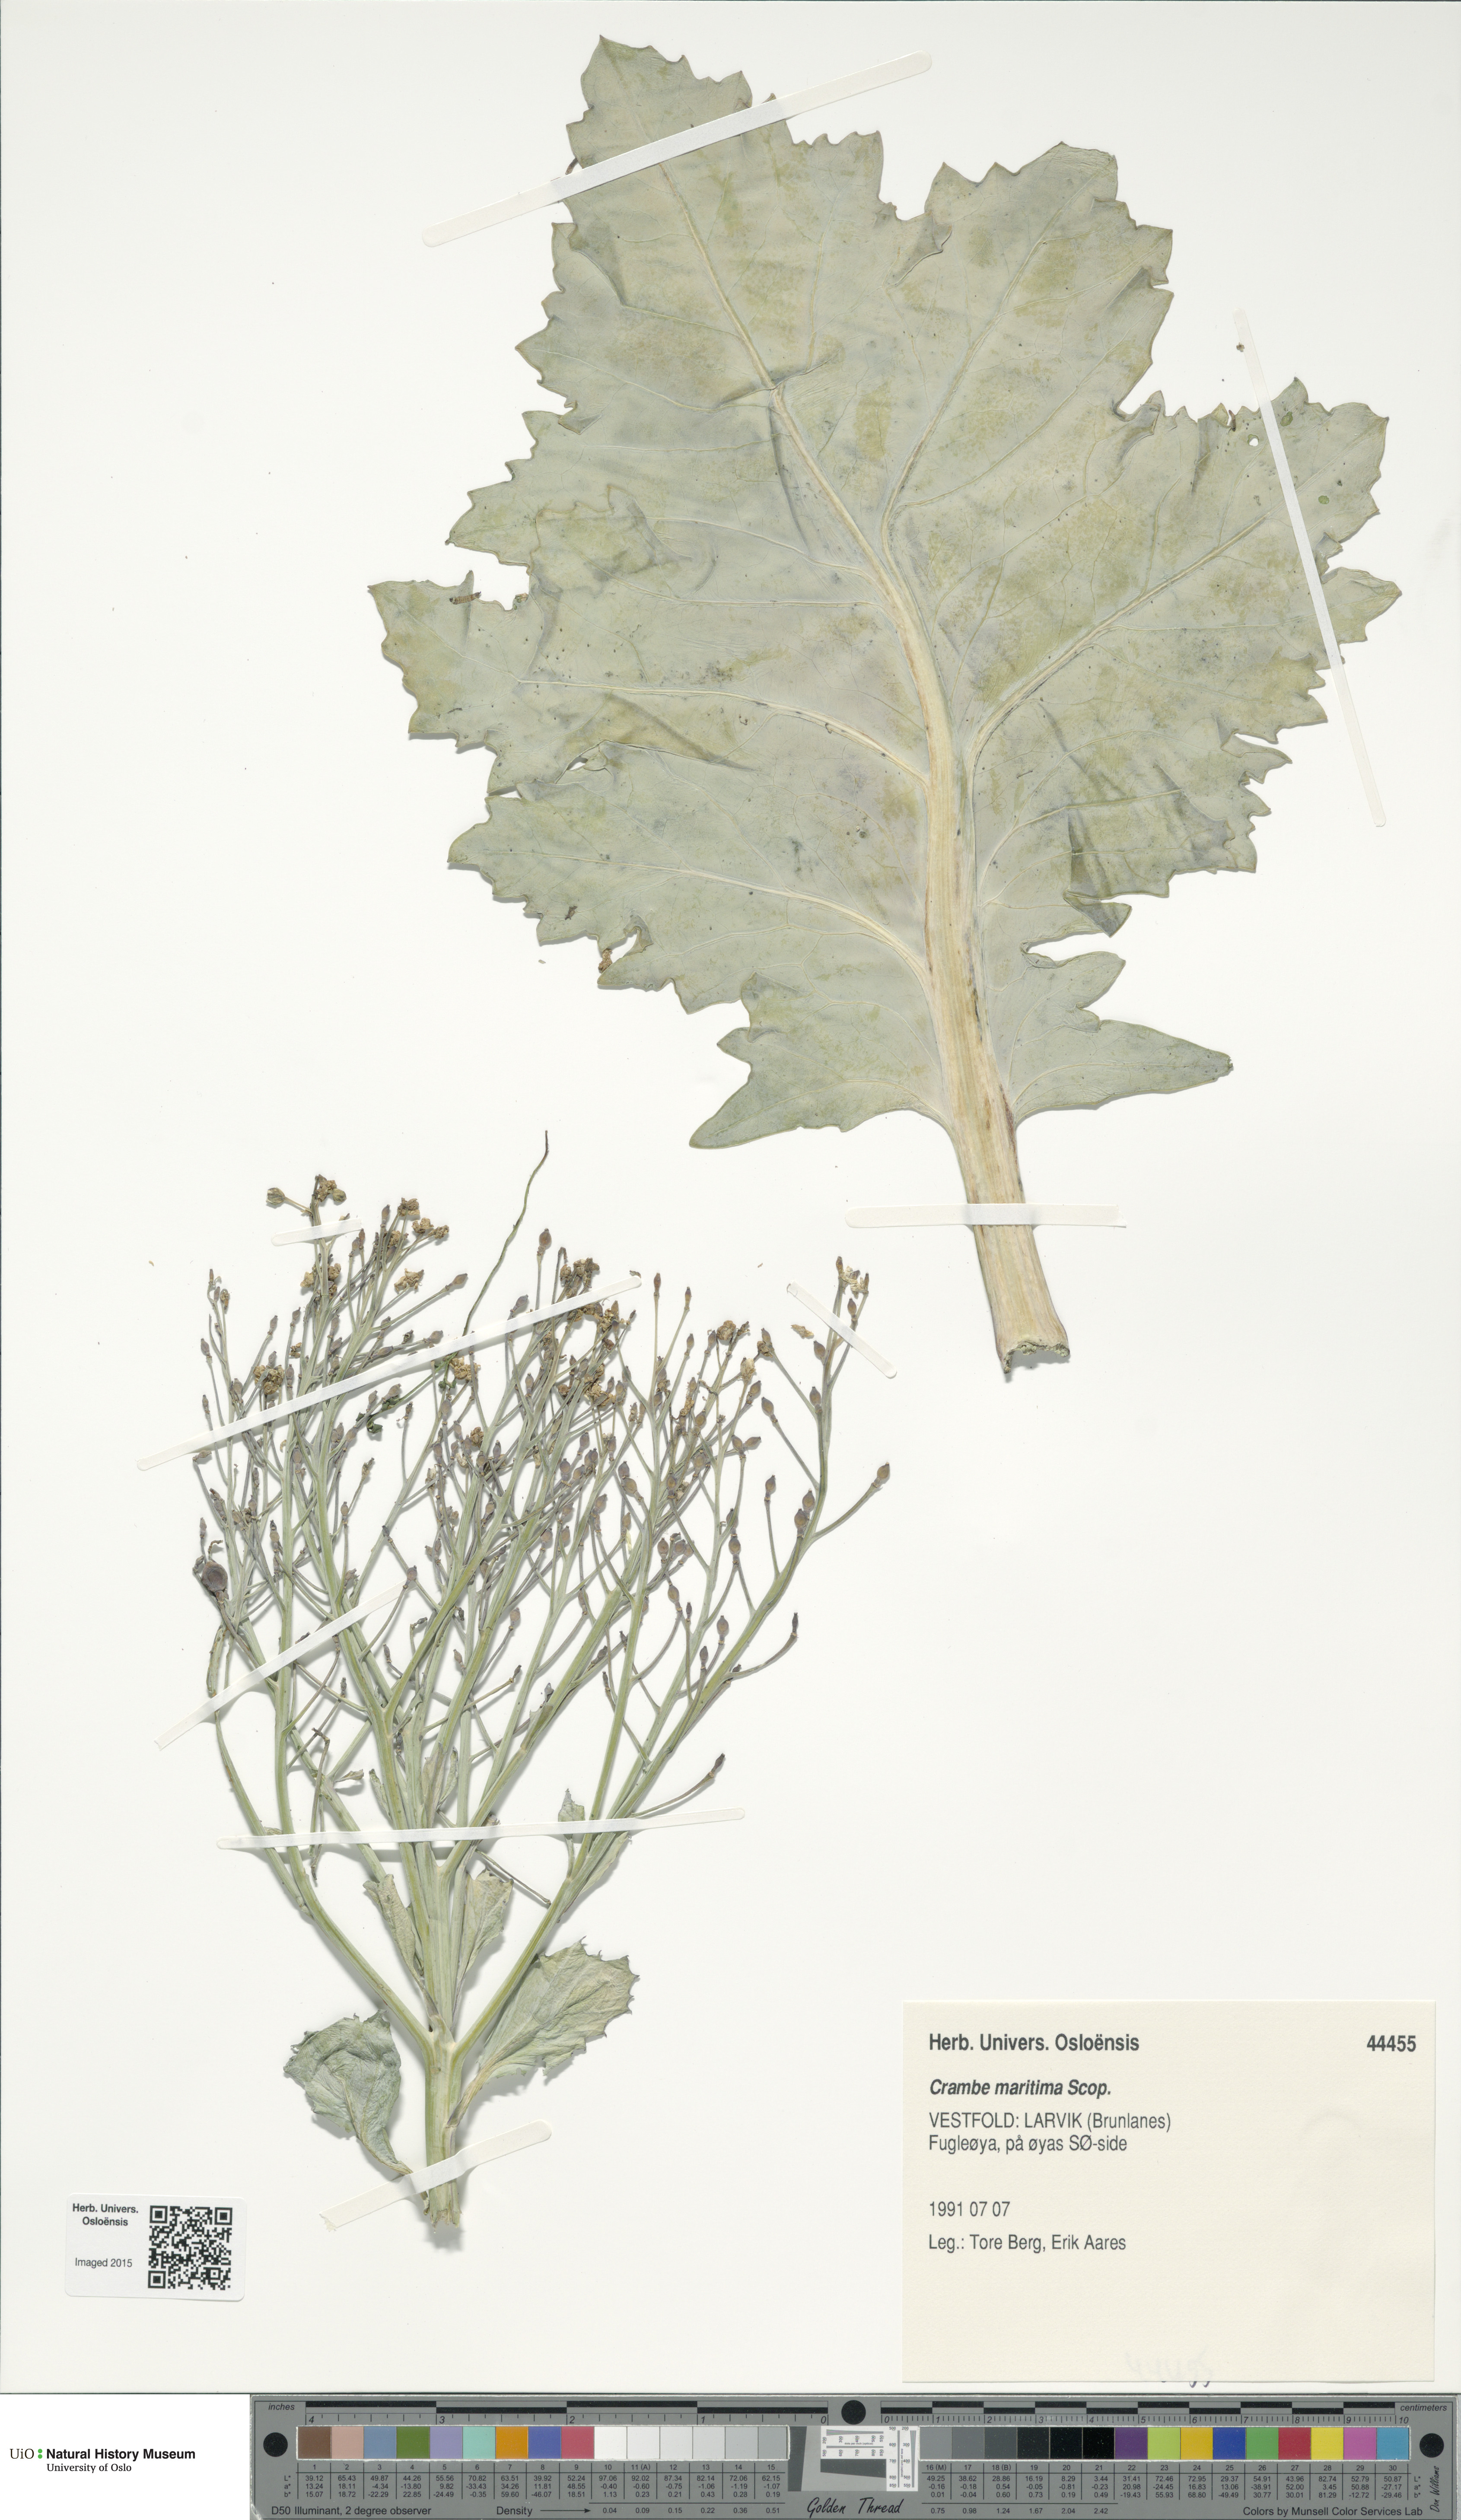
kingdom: Plantae
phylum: Tracheophyta
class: Magnoliopsida
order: Brassicales
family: Brassicaceae
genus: Crambe
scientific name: Crambe maritima
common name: Sea-kale
